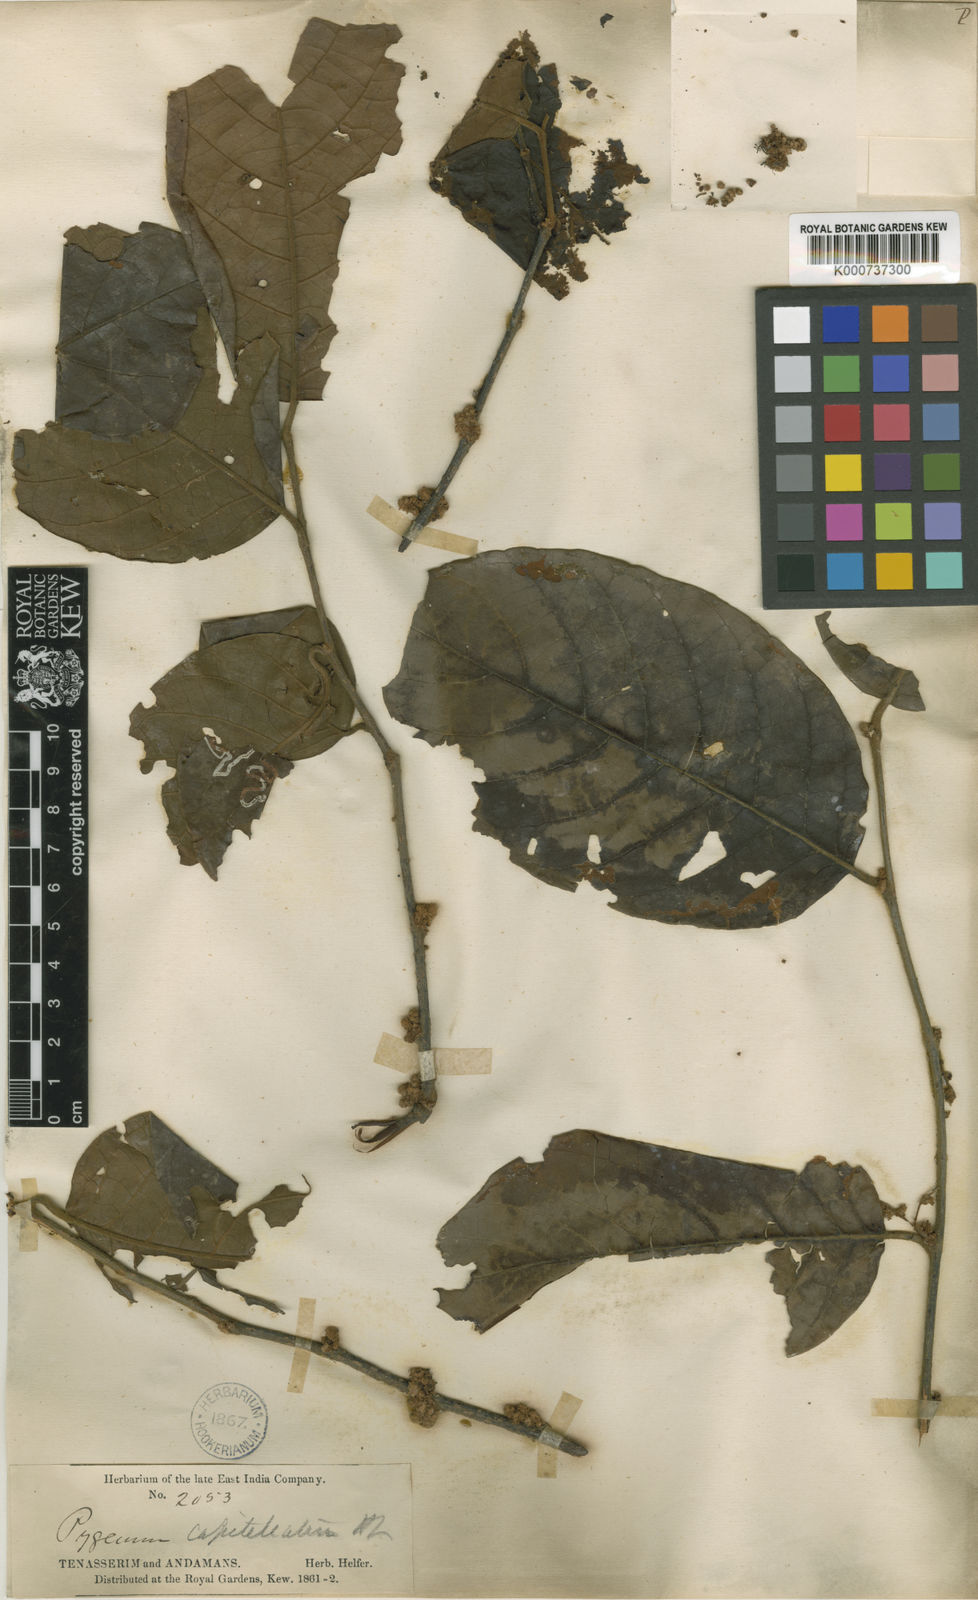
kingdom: Plantae
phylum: Tracheophyta
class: Magnoliopsida
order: Rosales
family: Rosaceae
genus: Prunus
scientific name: Prunus arborea
